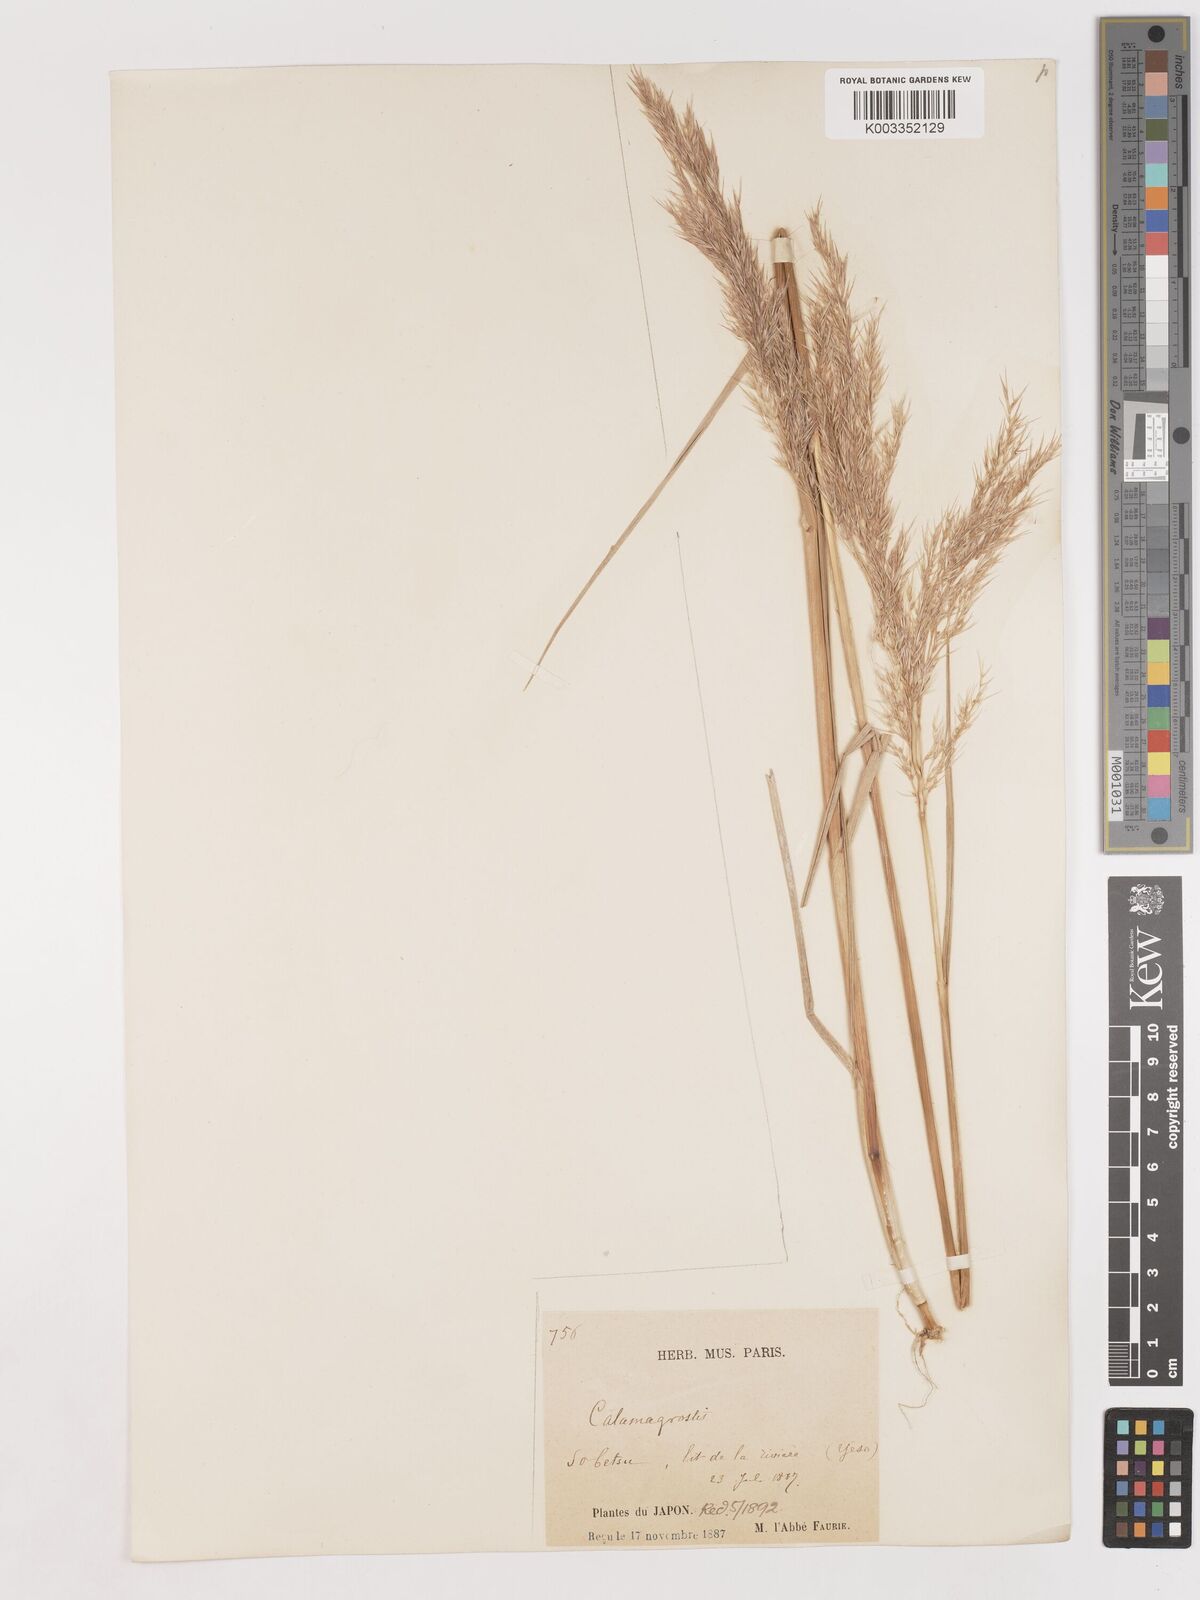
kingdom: Plantae
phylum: Tracheophyta
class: Liliopsida
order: Poales
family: Poaceae
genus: Calamagrostis
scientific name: Calamagrostis pseudophragmites
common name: Coastal small-reed
